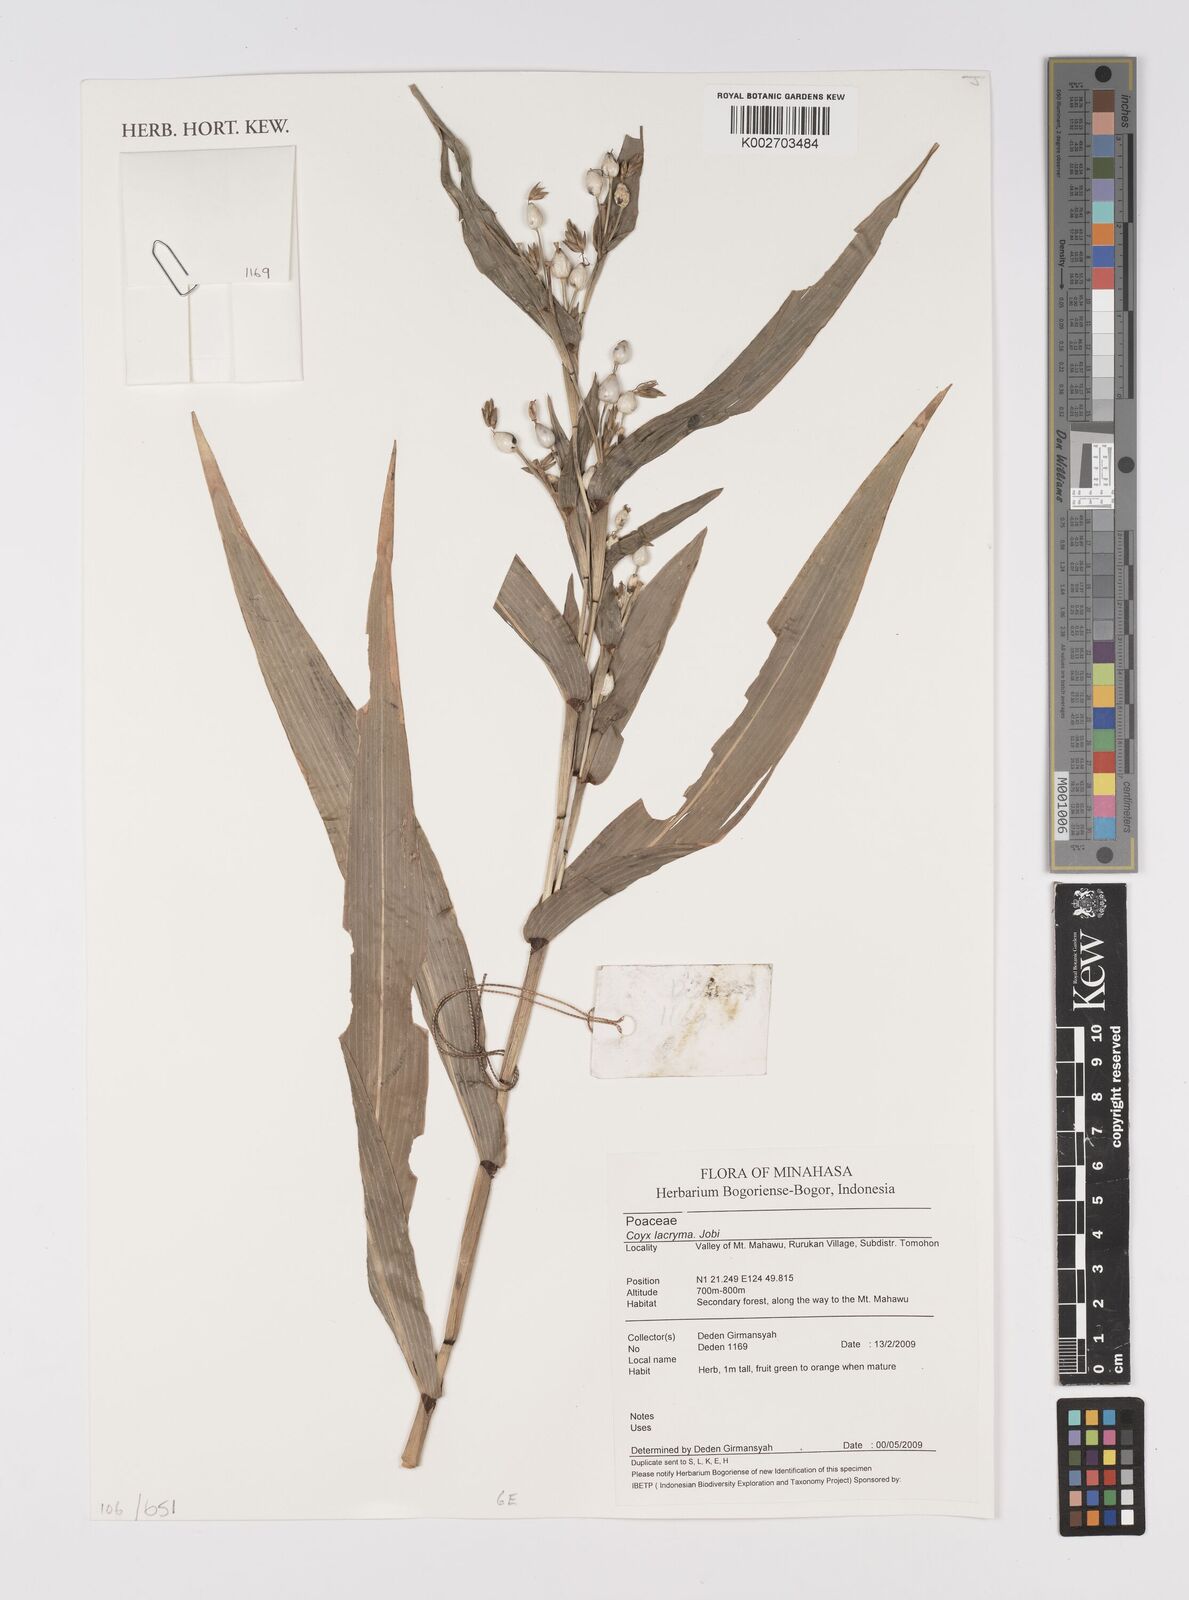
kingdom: Plantae
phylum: Tracheophyta
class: Liliopsida
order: Poales
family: Poaceae
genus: Coix
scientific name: Coix lacryma-jobi
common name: Job's tears
